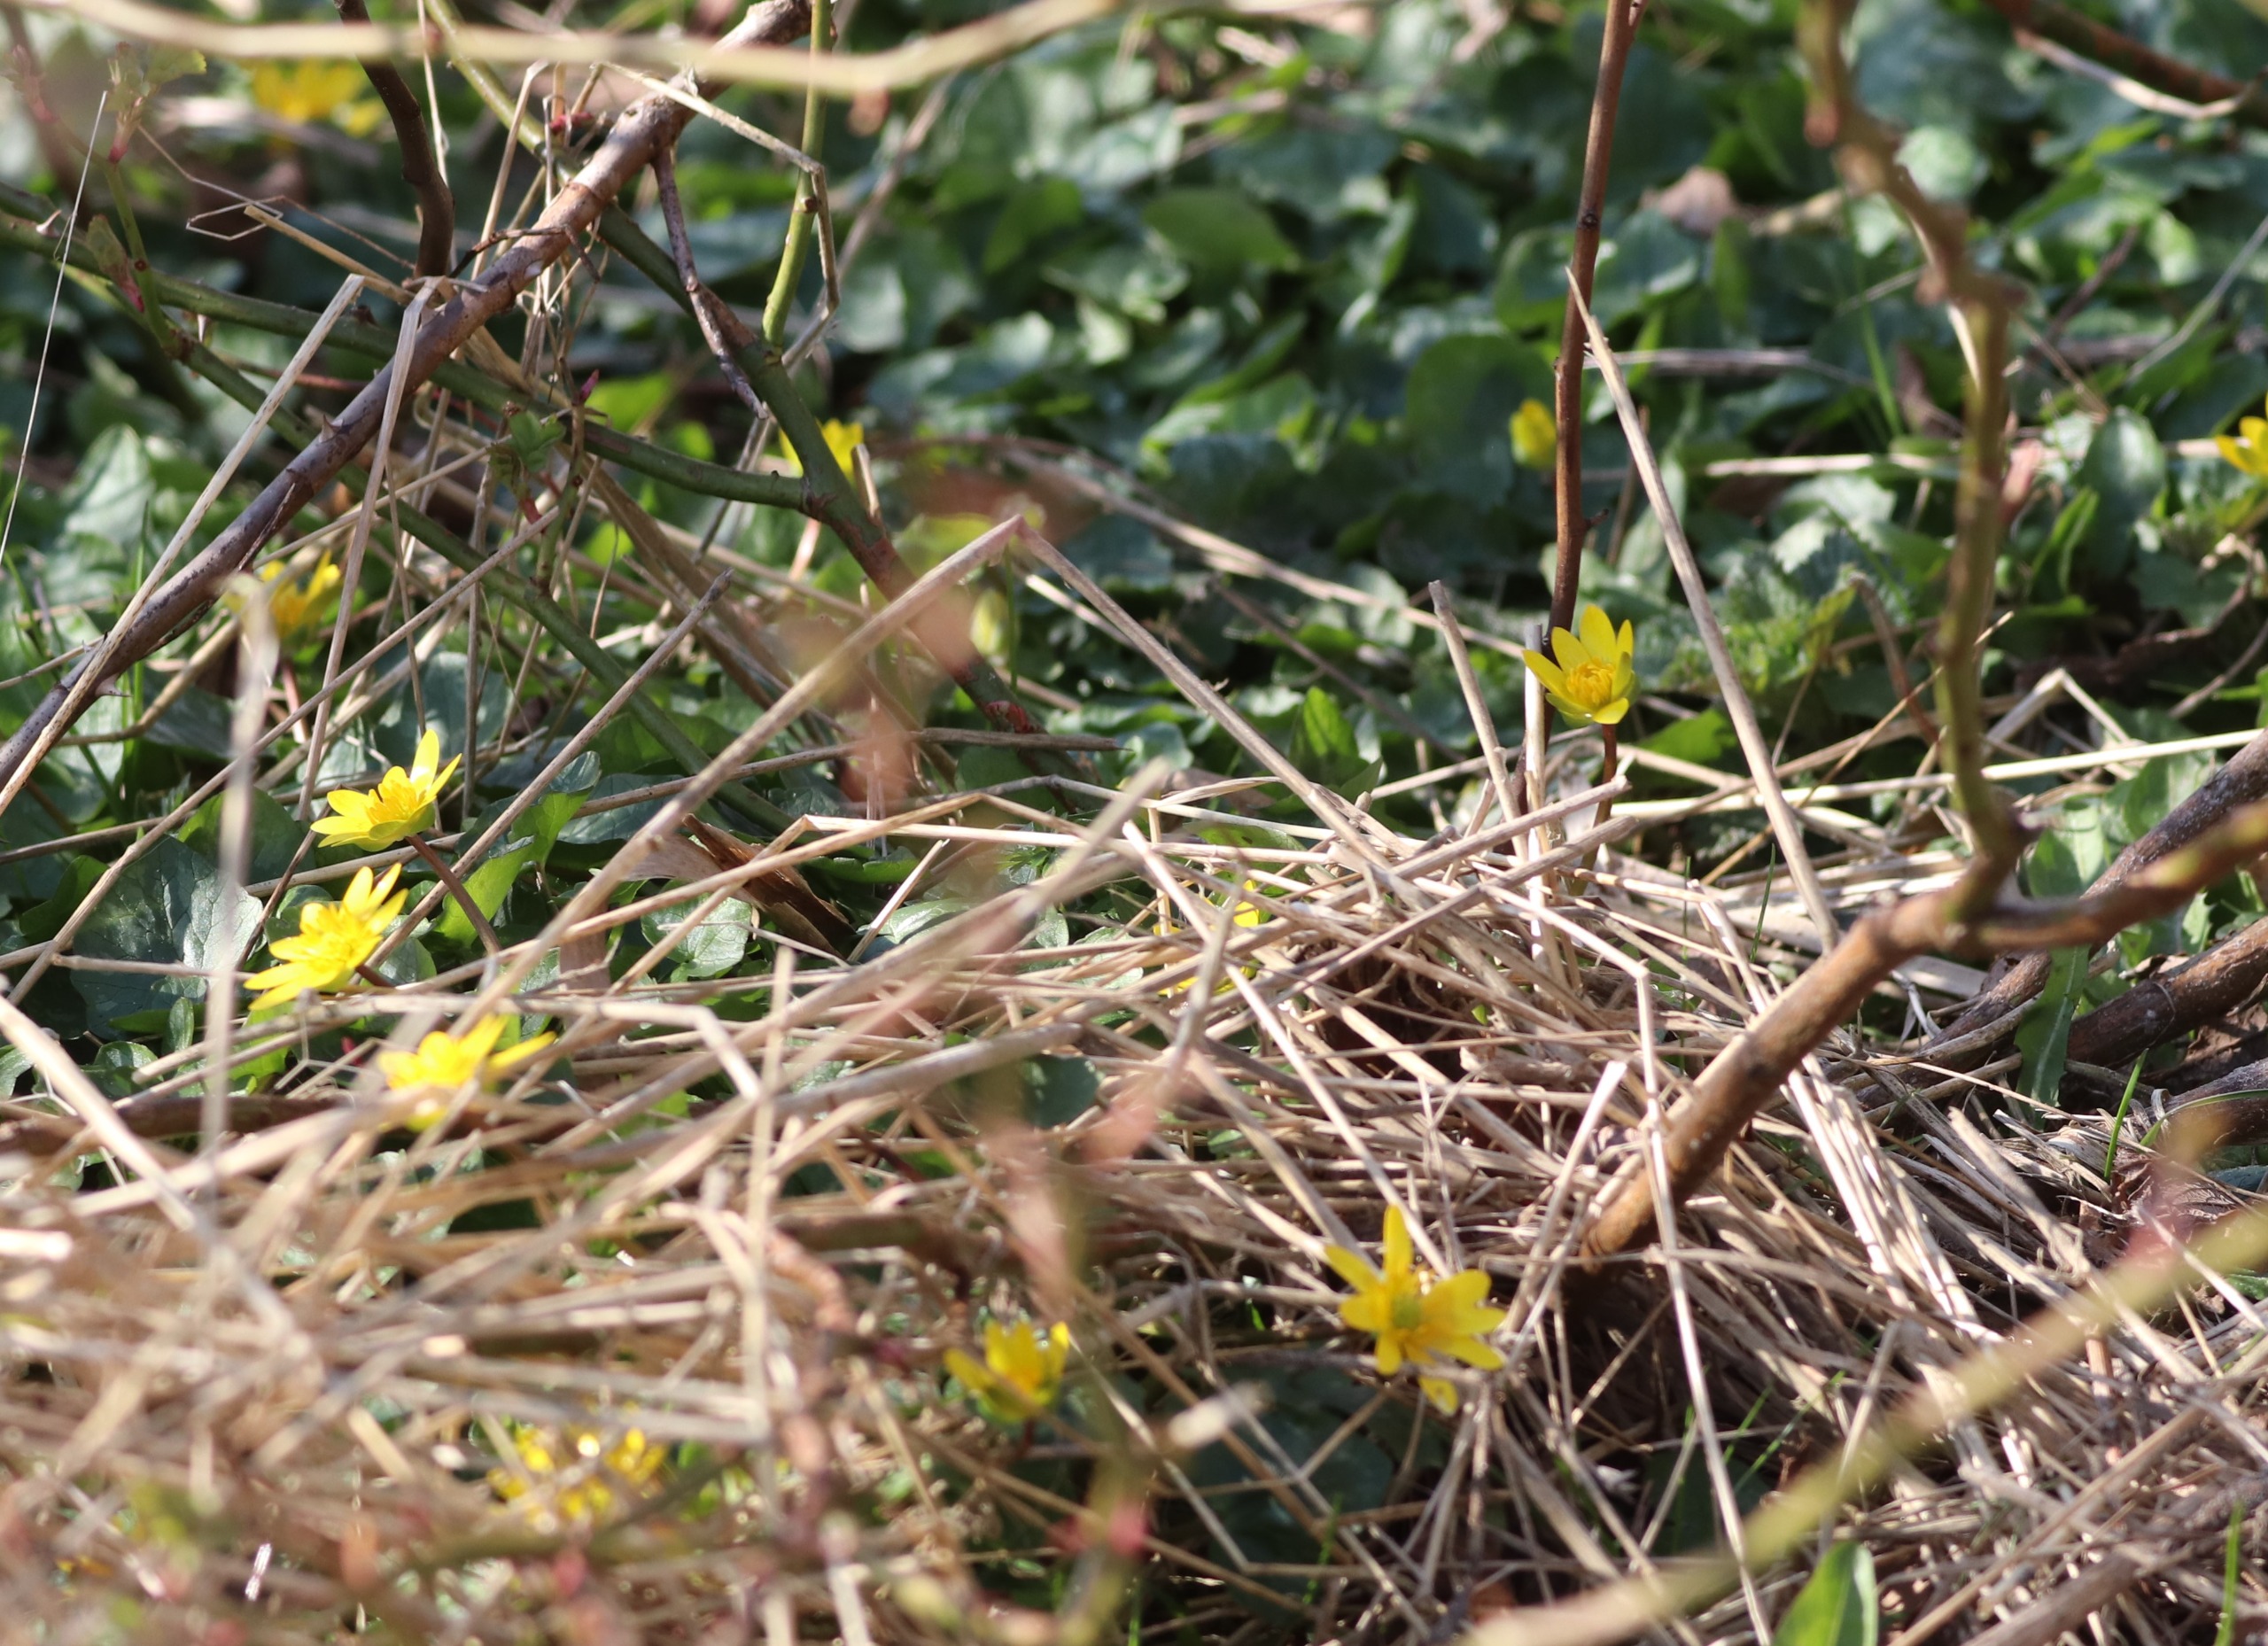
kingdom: Plantae
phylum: Tracheophyta
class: Magnoliopsida
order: Ranunculales
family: Ranunculaceae
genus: Ficaria
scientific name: Ficaria verna
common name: Vorterod
